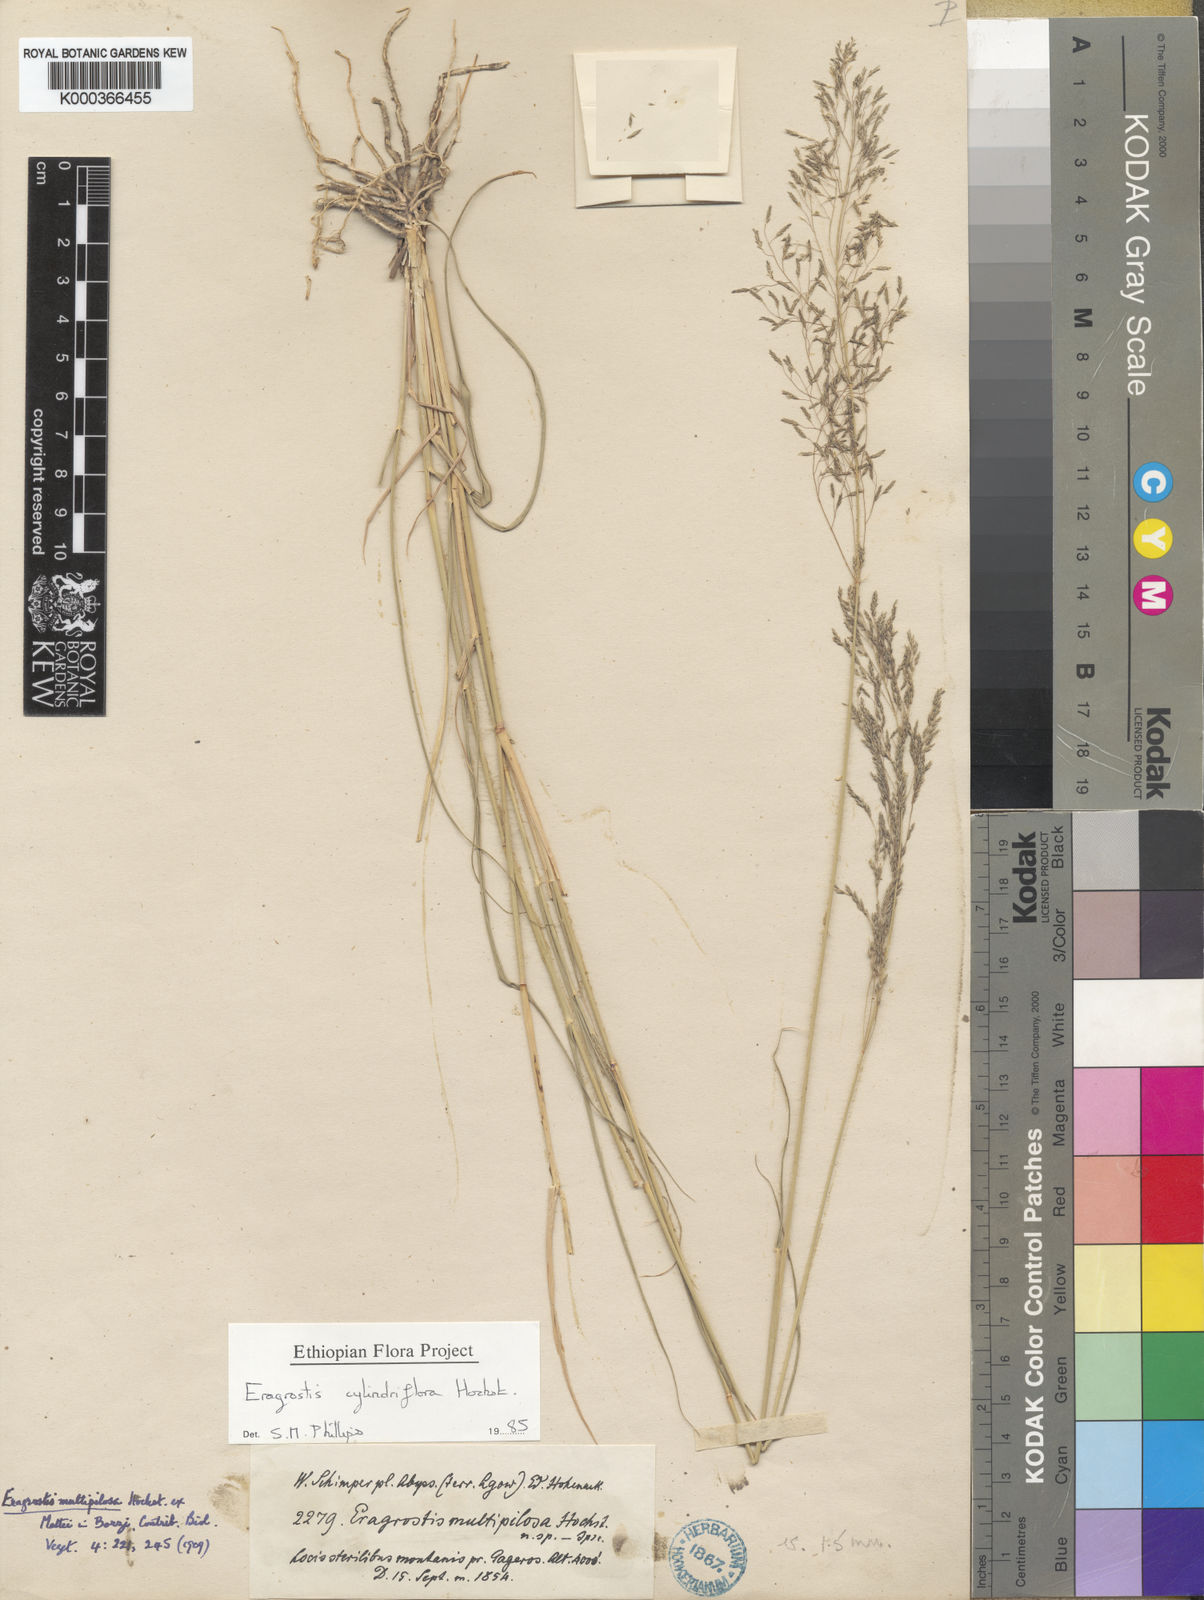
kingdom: Plantae
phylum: Tracheophyta
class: Liliopsida
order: Poales
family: Poaceae
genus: Eragrostis
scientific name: Eragrostis cylindriflora
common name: Cylinderflower lovegrass
